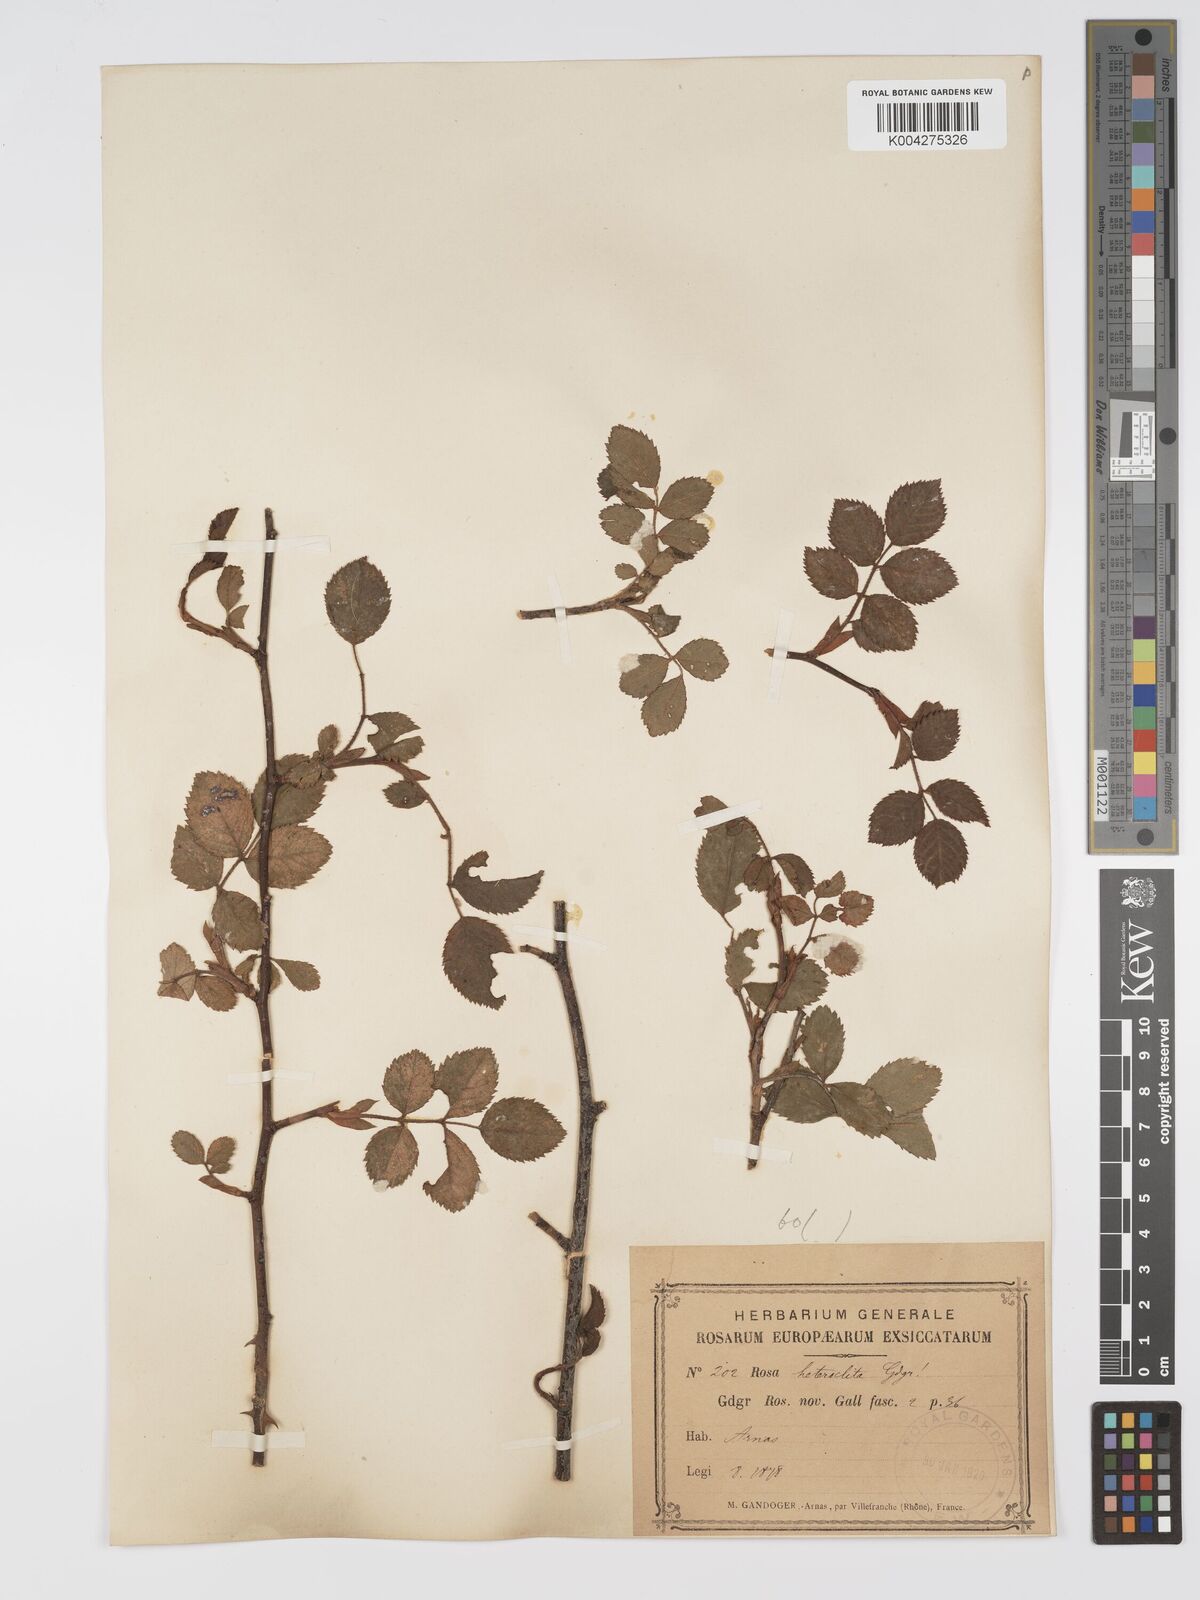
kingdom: Plantae
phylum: Tracheophyta
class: Magnoliopsida
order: Rosales
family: Rosaceae
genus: Rosa
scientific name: Rosa
